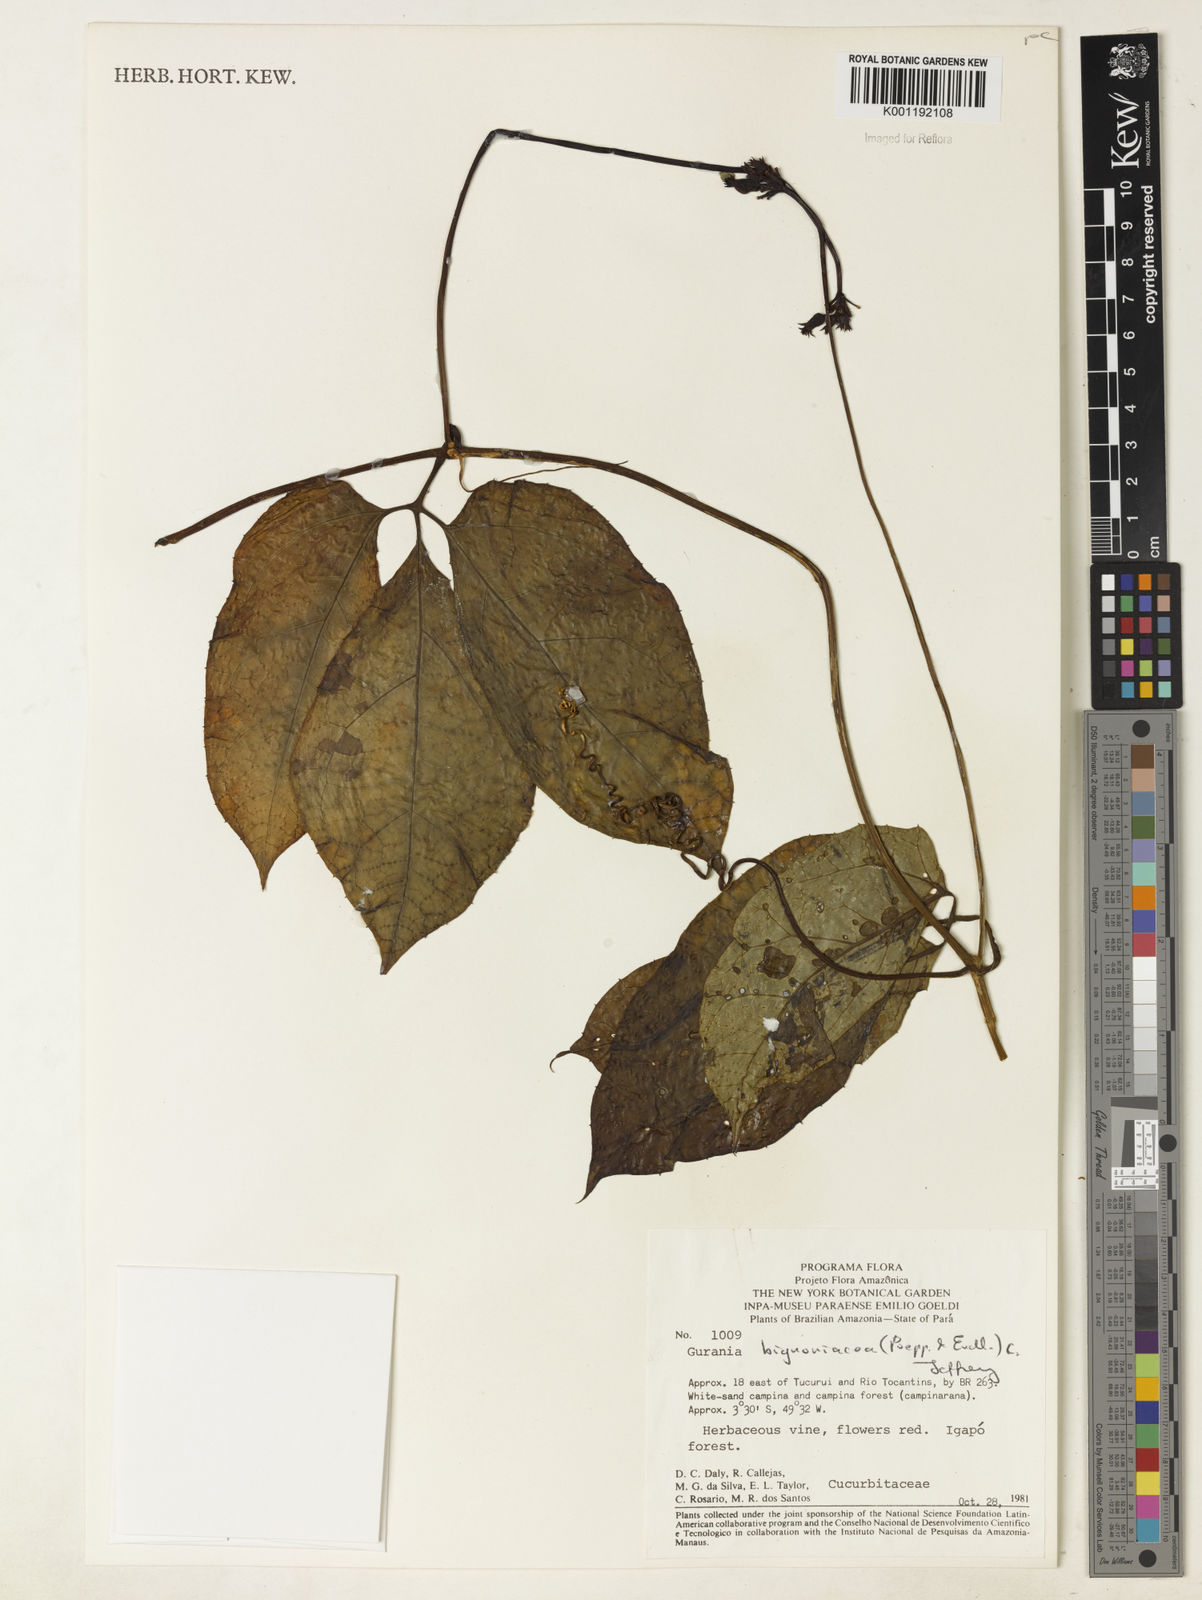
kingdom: Plantae
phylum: Tracheophyta
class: Magnoliopsida
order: Cucurbitales
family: Cucurbitaceae
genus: Gurania
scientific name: Gurania bignoniacea
